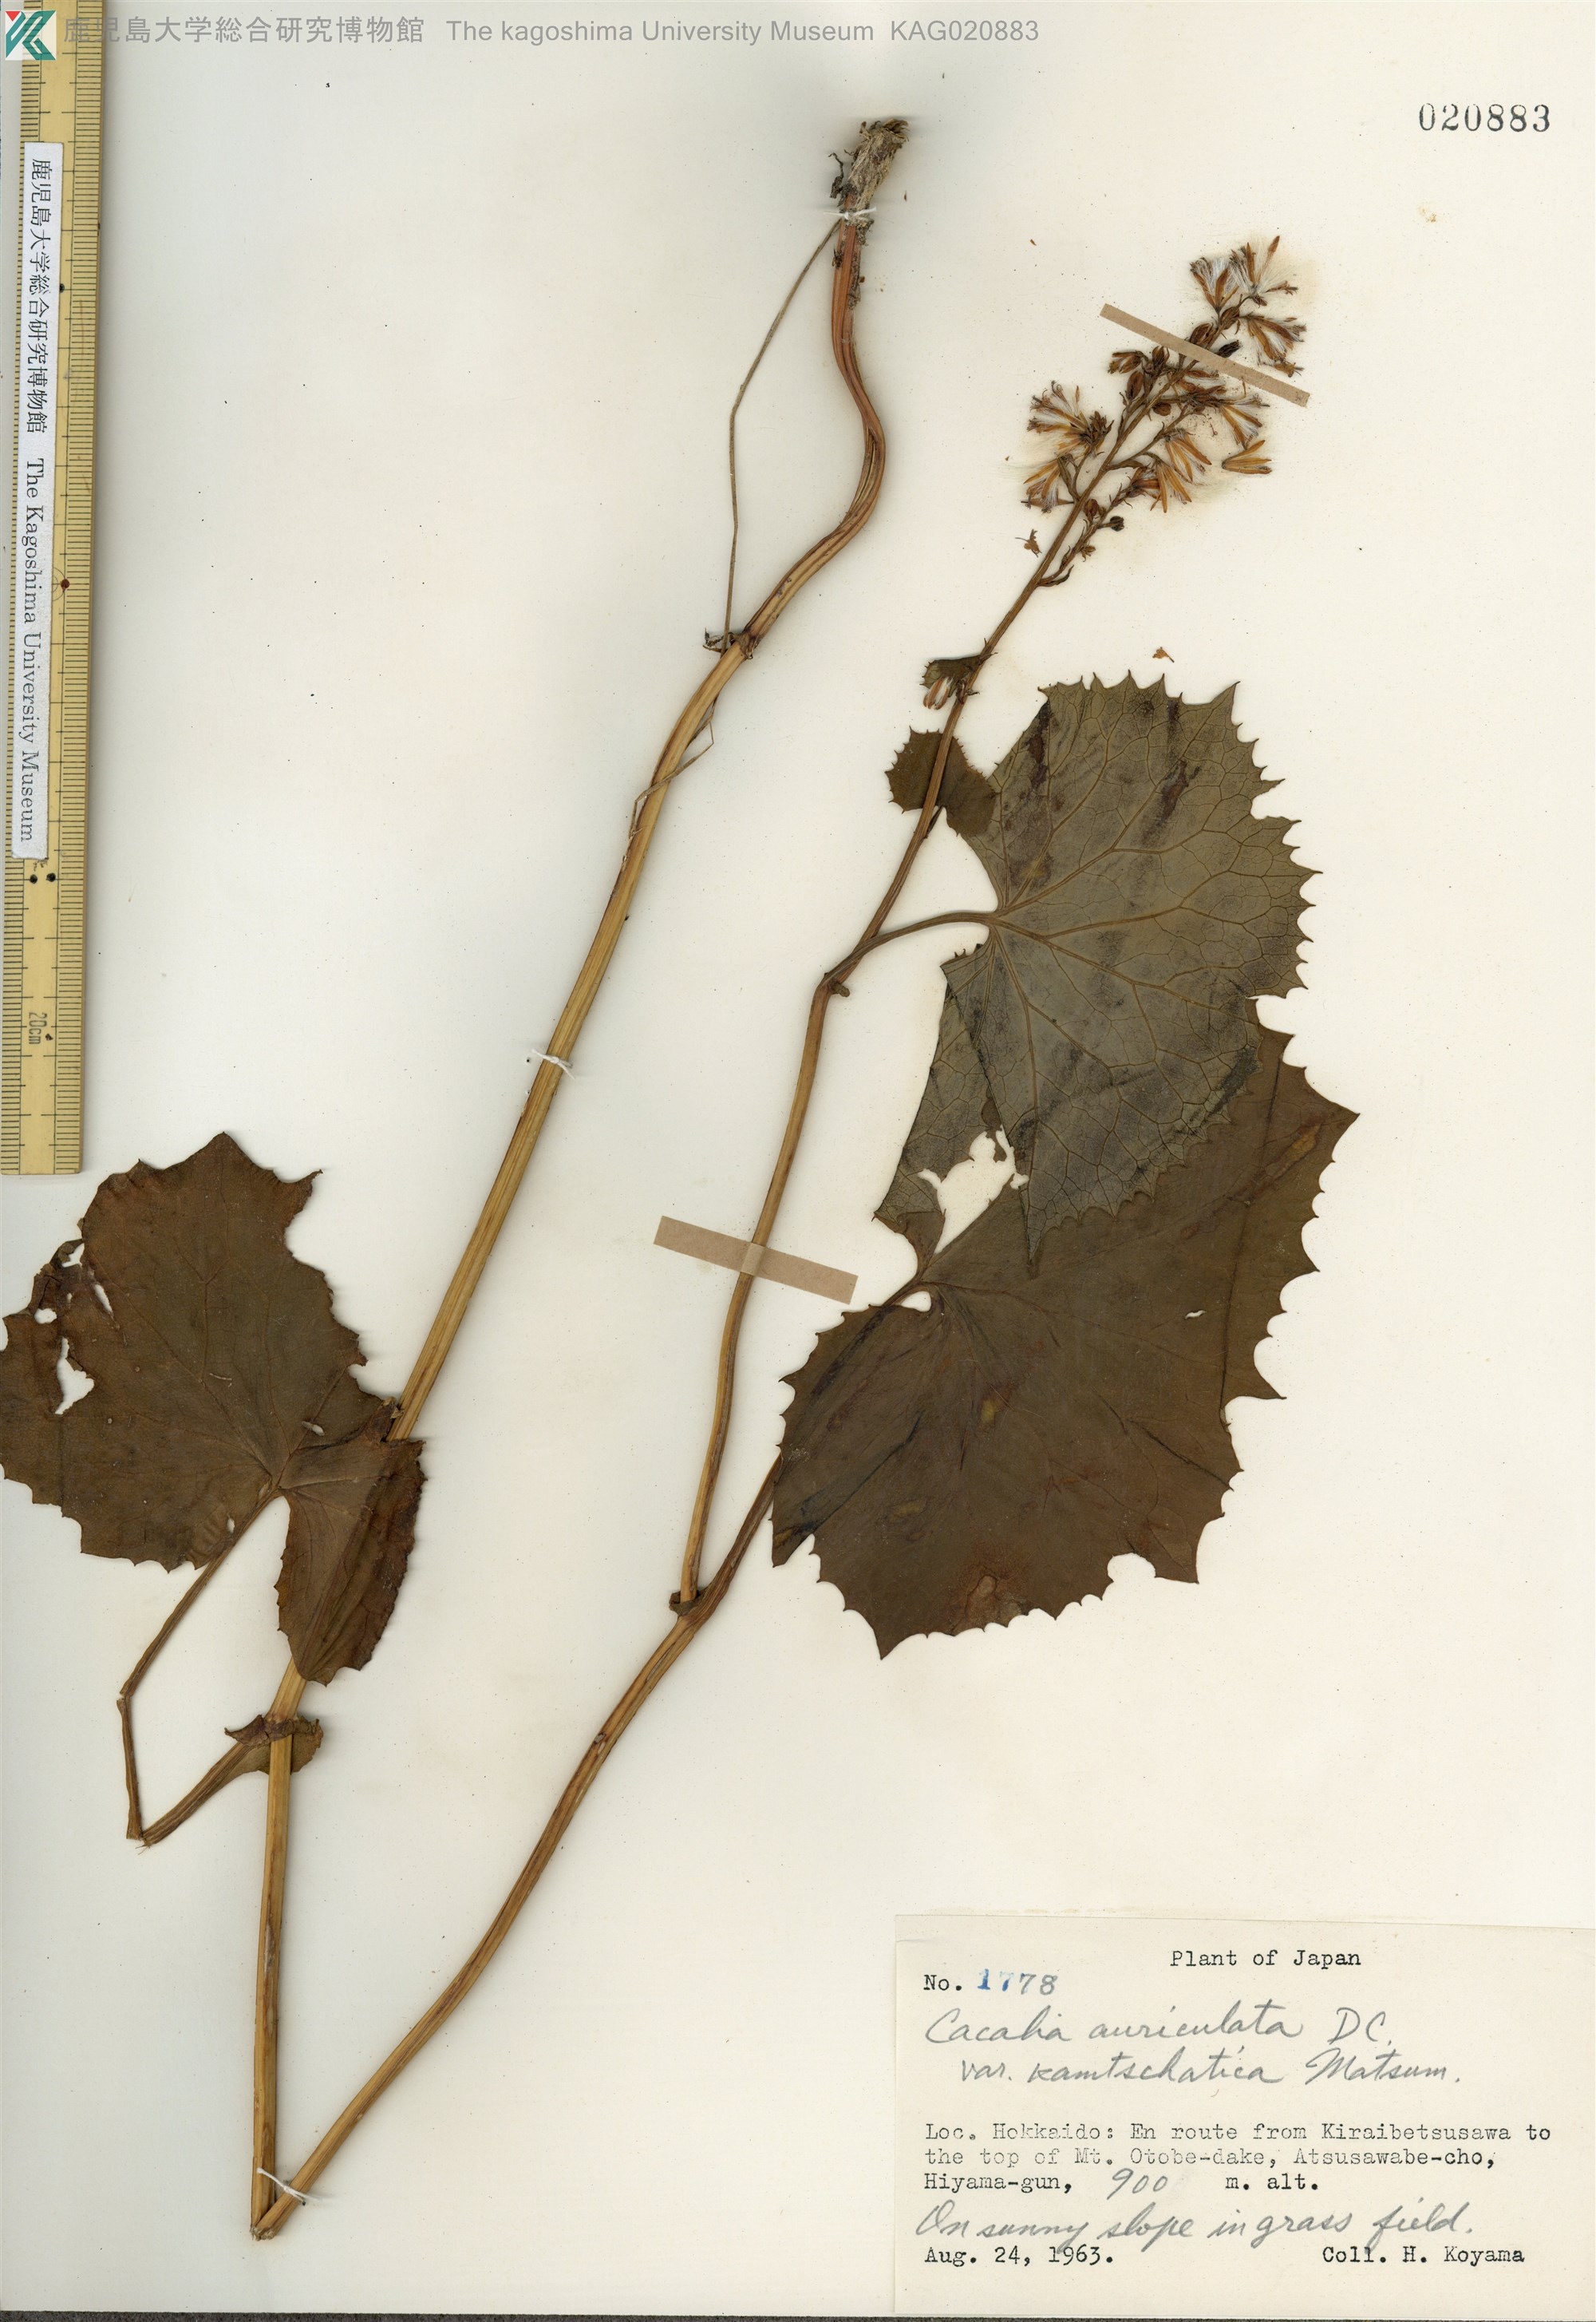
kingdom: Plantae
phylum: Tracheophyta
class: Magnoliopsida
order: Asterales
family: Asteraceae
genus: Parasenecio
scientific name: Parasenecio kamtschaticus
